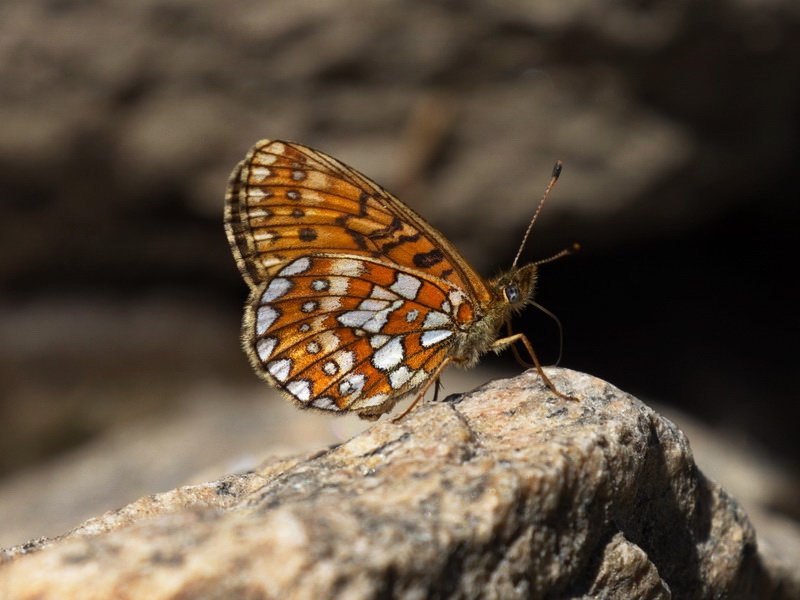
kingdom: Animalia
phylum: Arthropoda
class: Insecta
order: Lepidoptera
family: Nymphalidae
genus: Boloria
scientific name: Boloria eunomia
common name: Bog Fritillary
